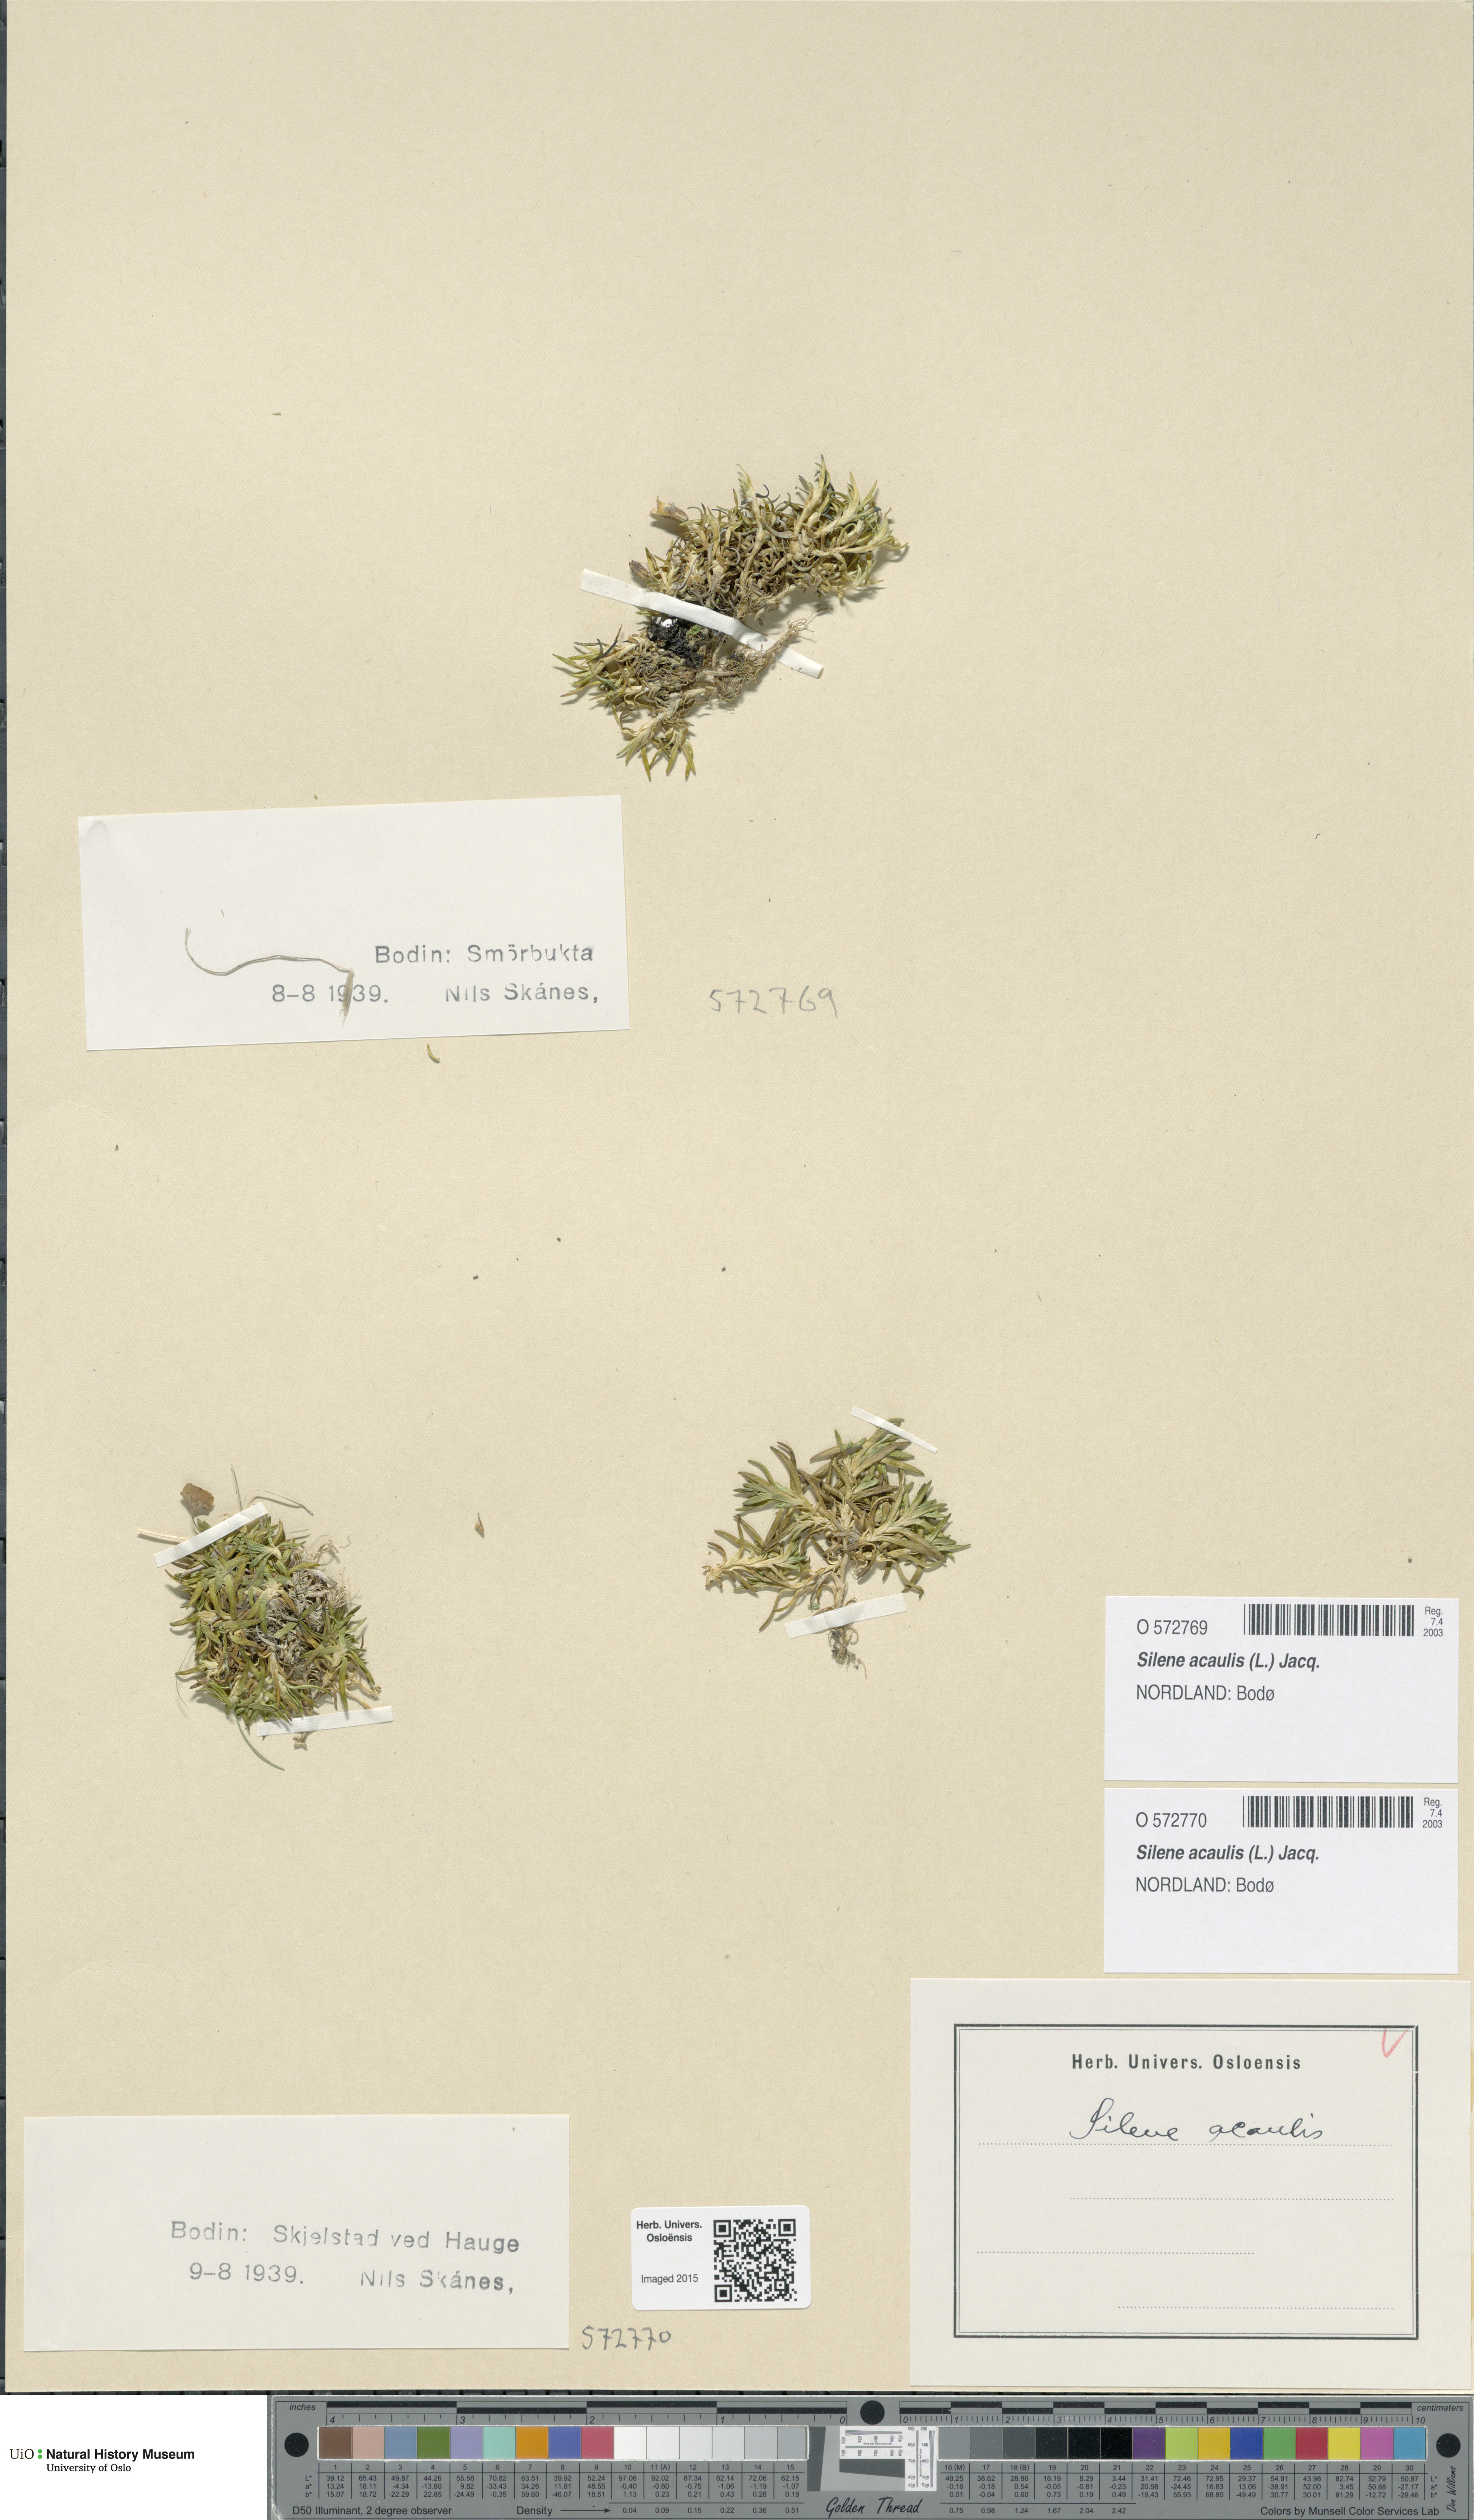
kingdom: Plantae
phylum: Tracheophyta
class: Magnoliopsida
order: Caryophyllales
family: Caryophyllaceae
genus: Silene
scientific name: Silene acaulis
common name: Moss campion
